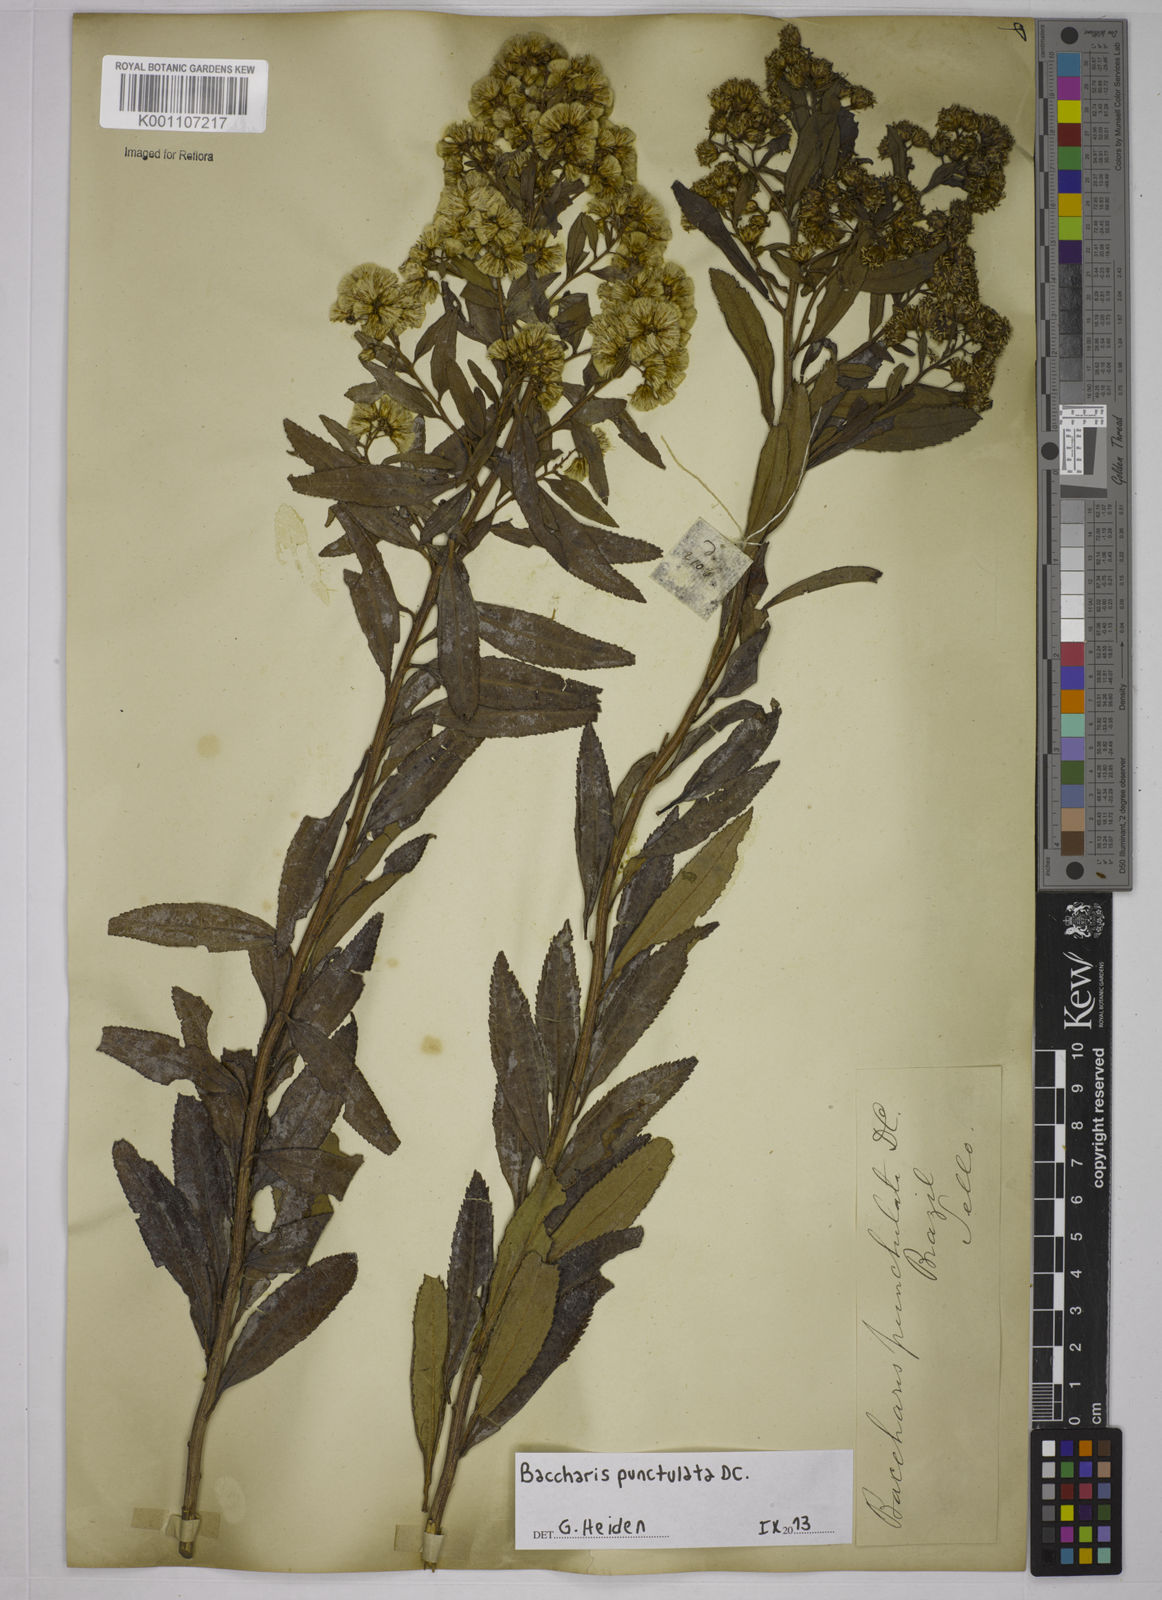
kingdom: Plantae
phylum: Tracheophyta
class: Magnoliopsida
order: Asterales
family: Asteraceae
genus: Baccharis
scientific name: Baccharis punctulata
